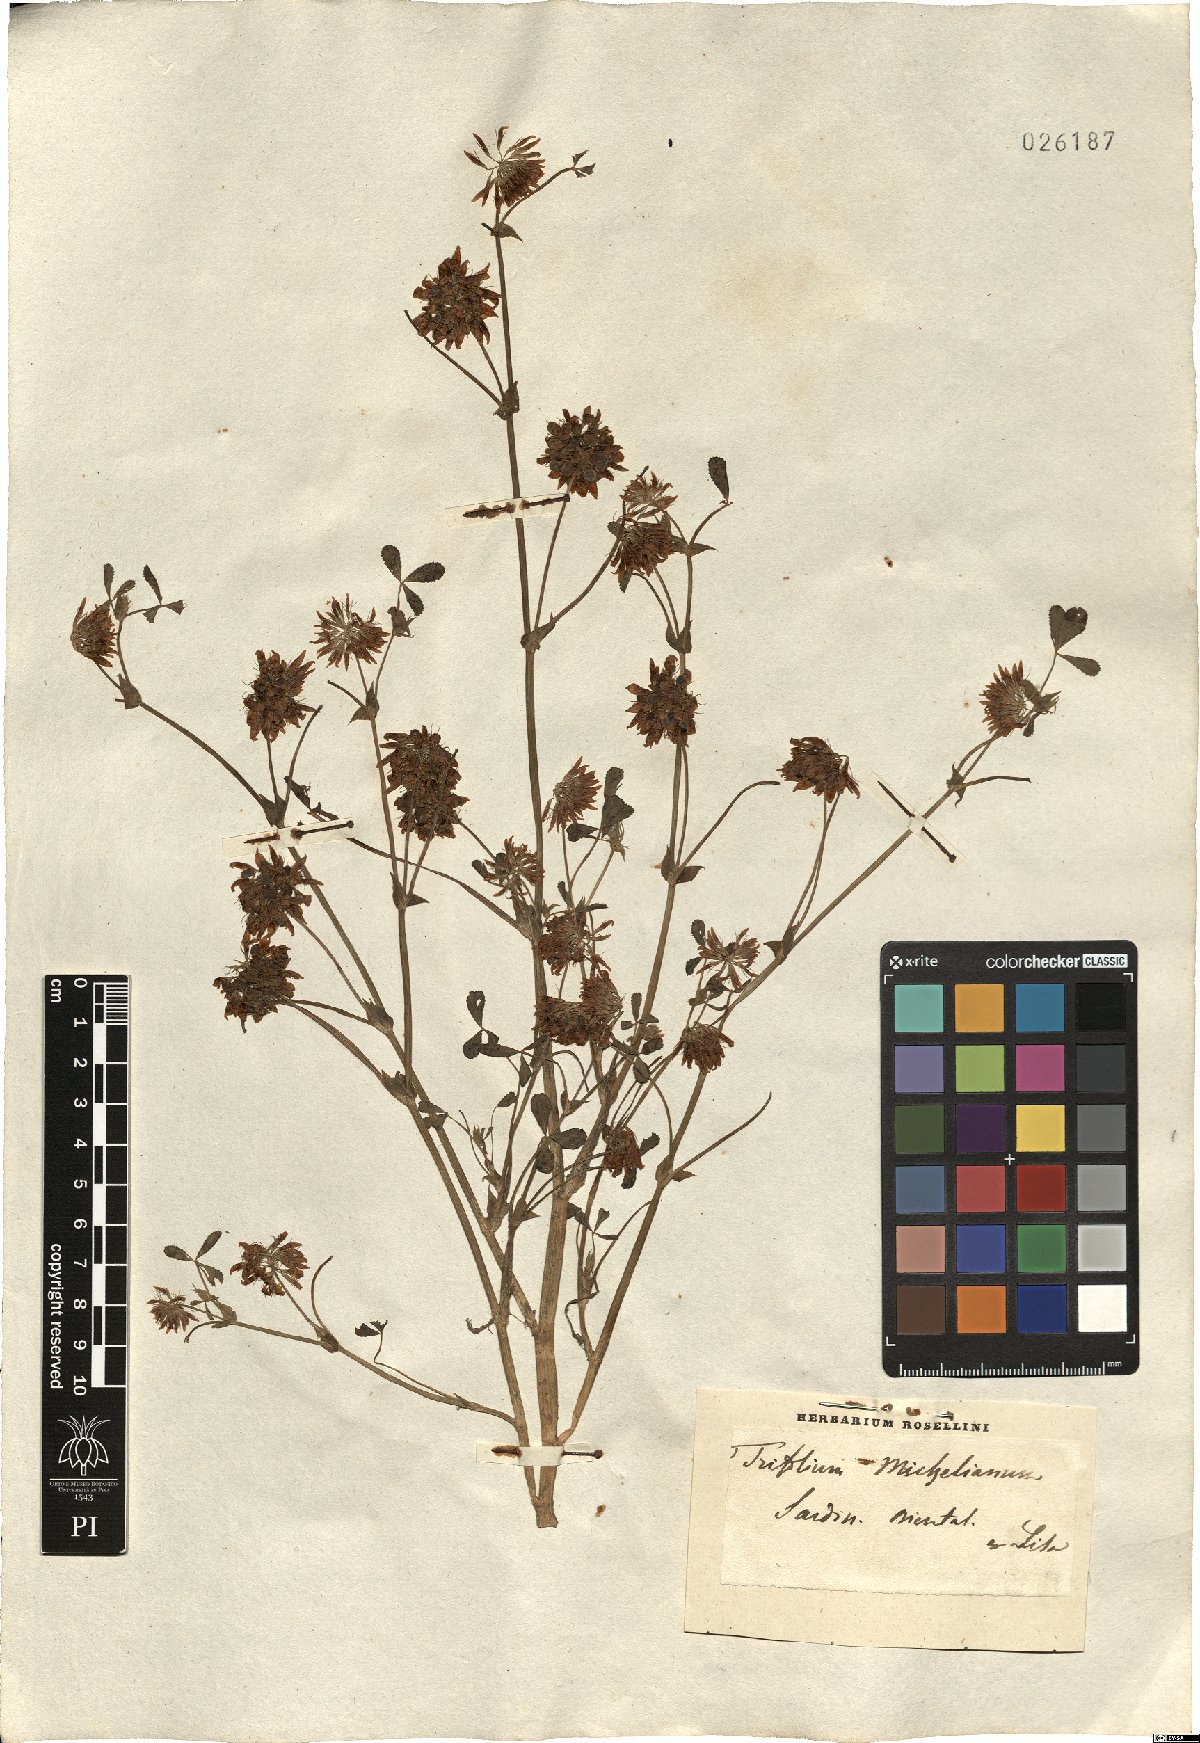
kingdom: Plantae
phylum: Tracheophyta
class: Magnoliopsida
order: Fabales
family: Fabaceae
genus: Trifolium
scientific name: Trifolium michelianum
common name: Bigflower clover
